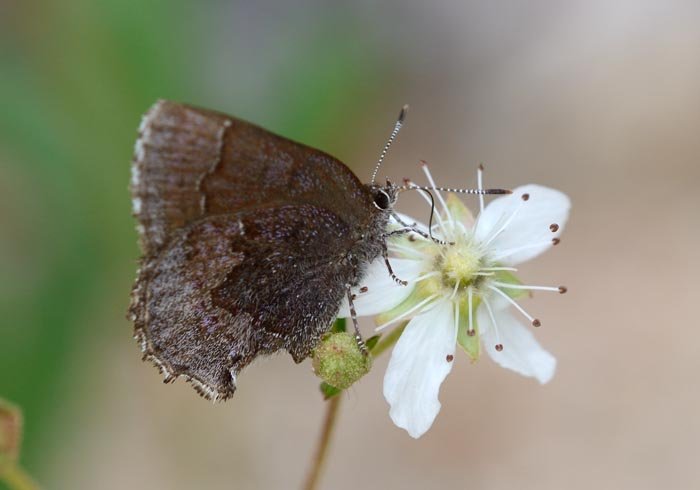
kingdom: Animalia
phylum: Arthropoda
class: Insecta
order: Lepidoptera
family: Lycaenidae
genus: Callophrys
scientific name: Callophrys polios
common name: Hoary Elfin
